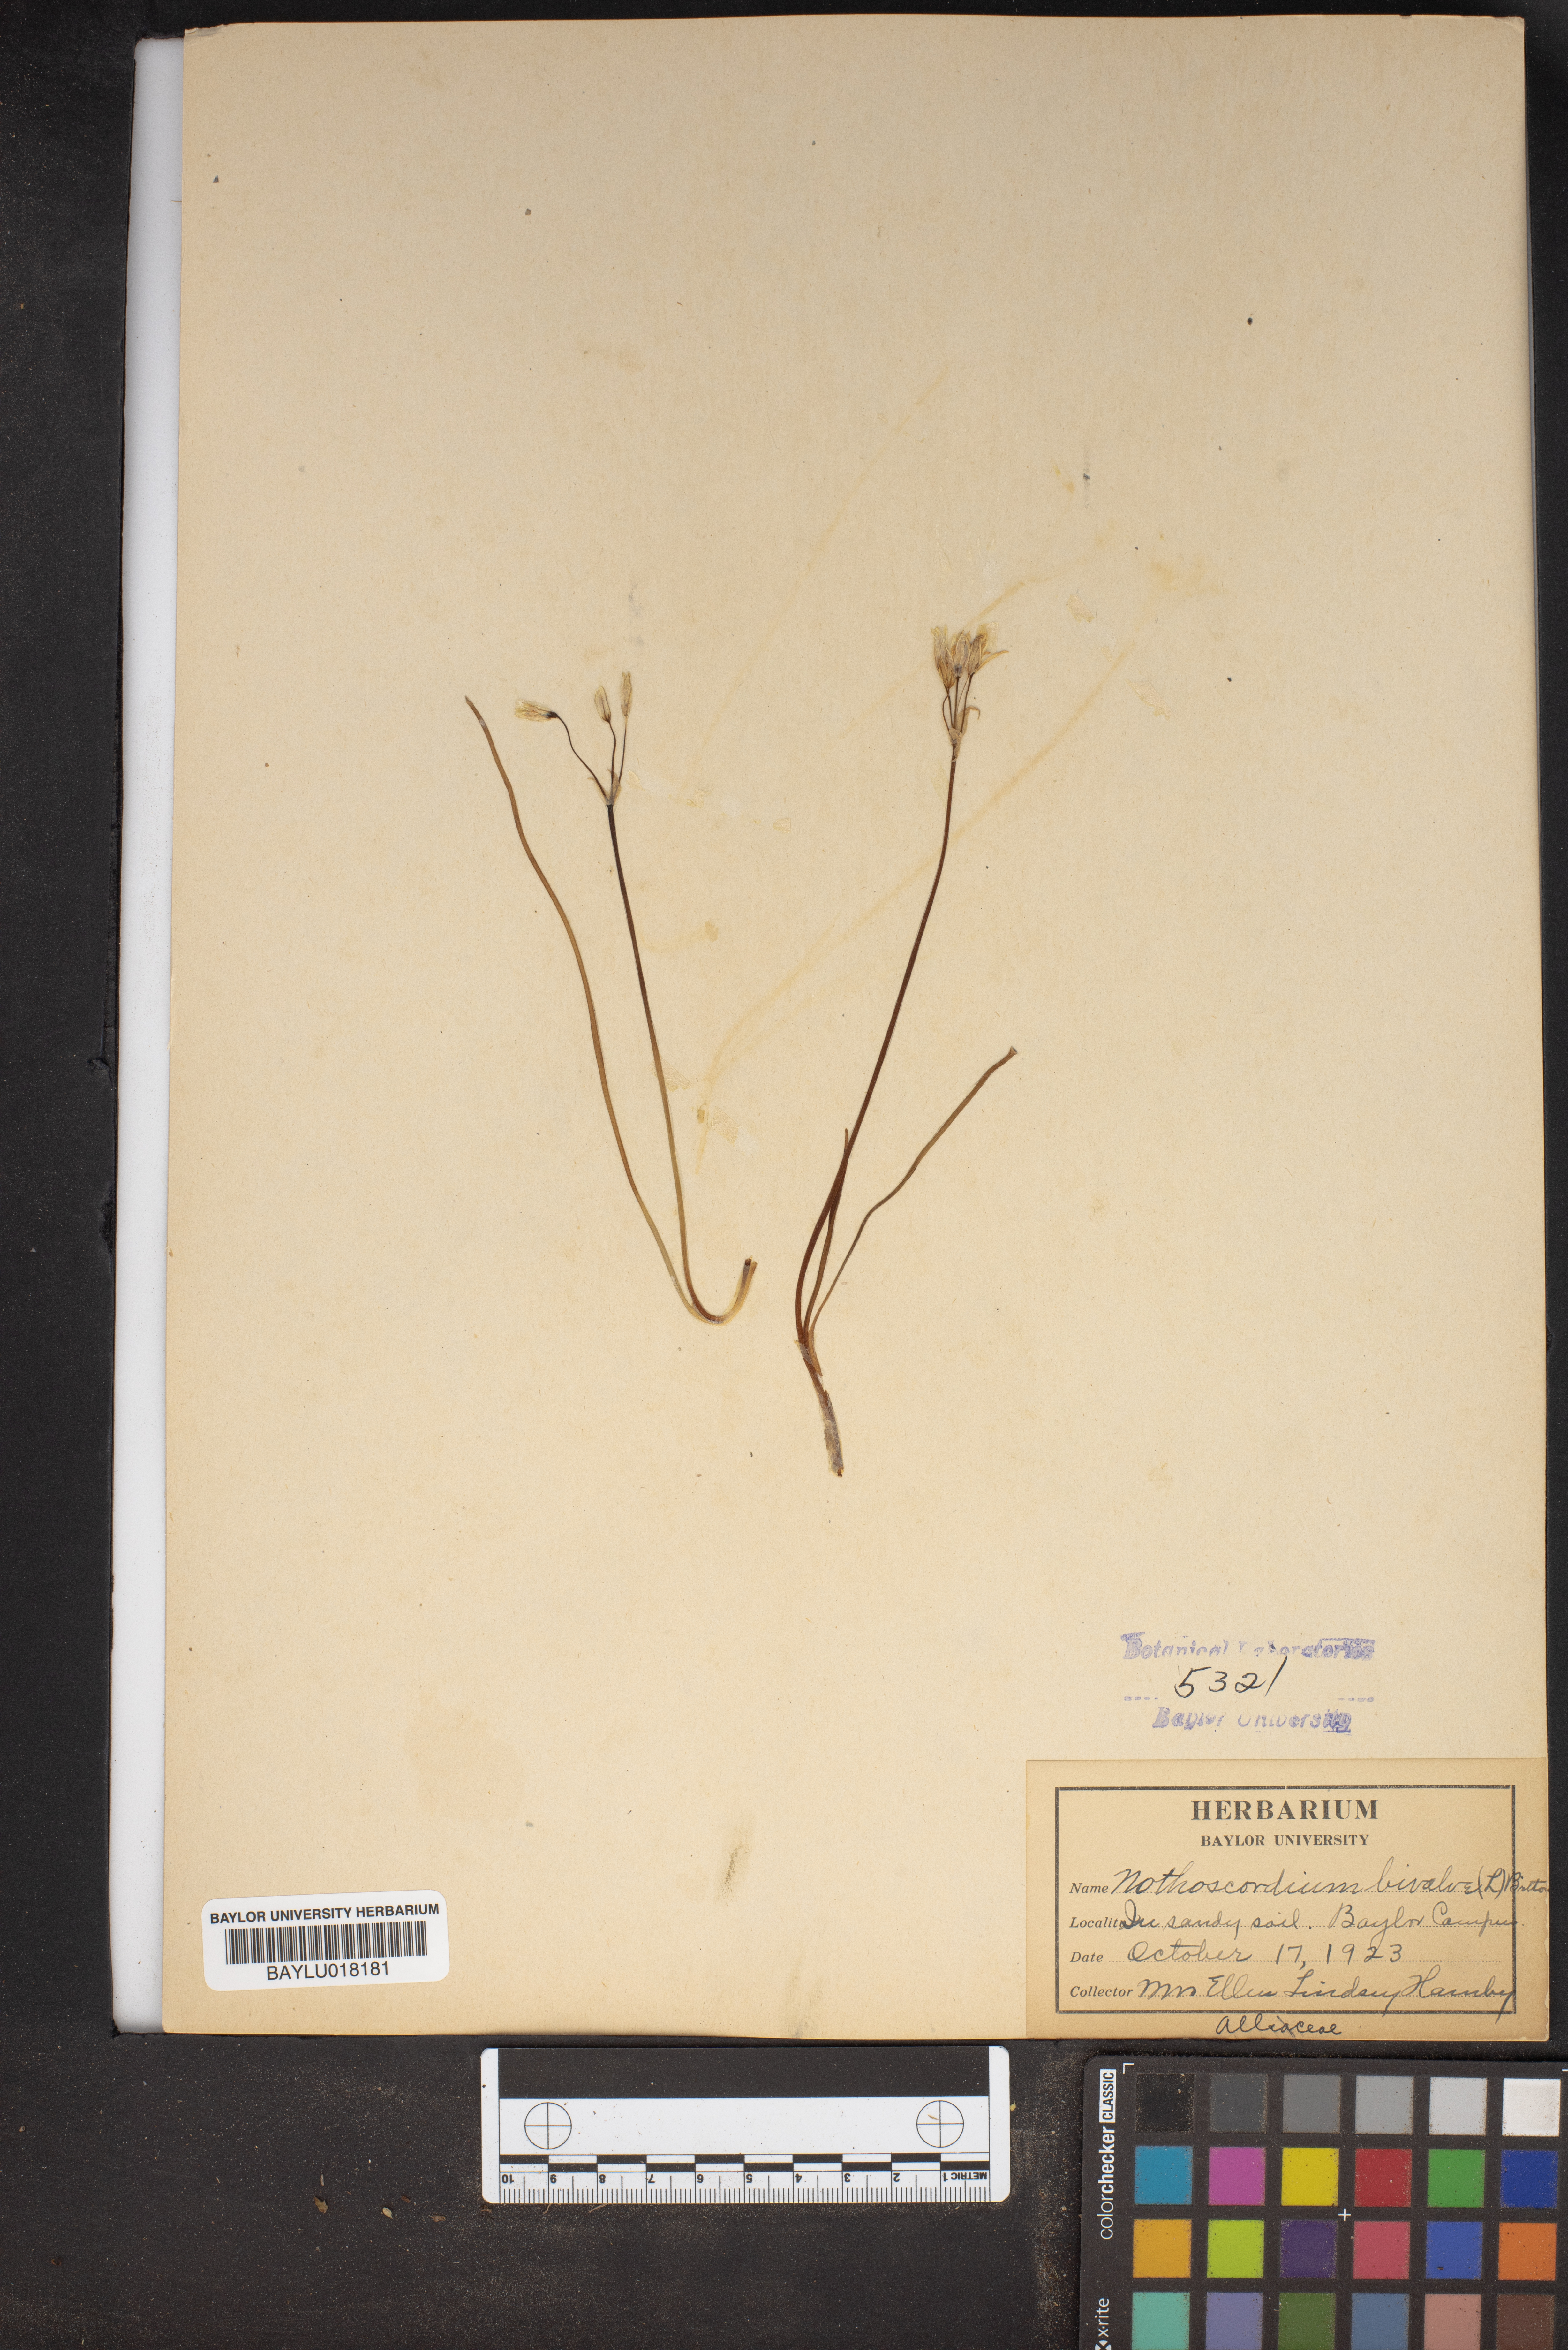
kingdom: Plantae
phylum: Tracheophyta
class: Liliopsida
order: Asparagales
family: Amaryllidaceae
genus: Nothoscordum
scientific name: Nothoscordum bivalve
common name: Crow-poison
